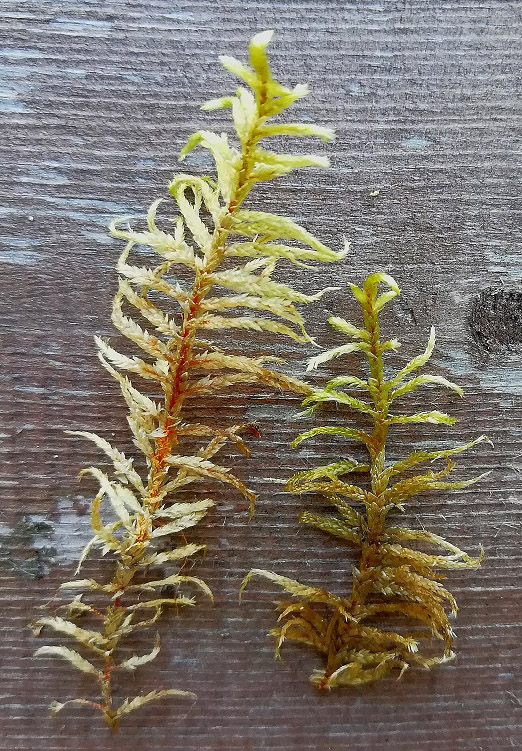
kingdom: Plantae
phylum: Bryophyta
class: Bryopsida
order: Hypnales
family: Hylocomiaceae
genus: Pleurozium
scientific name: Pleurozium schreberi
